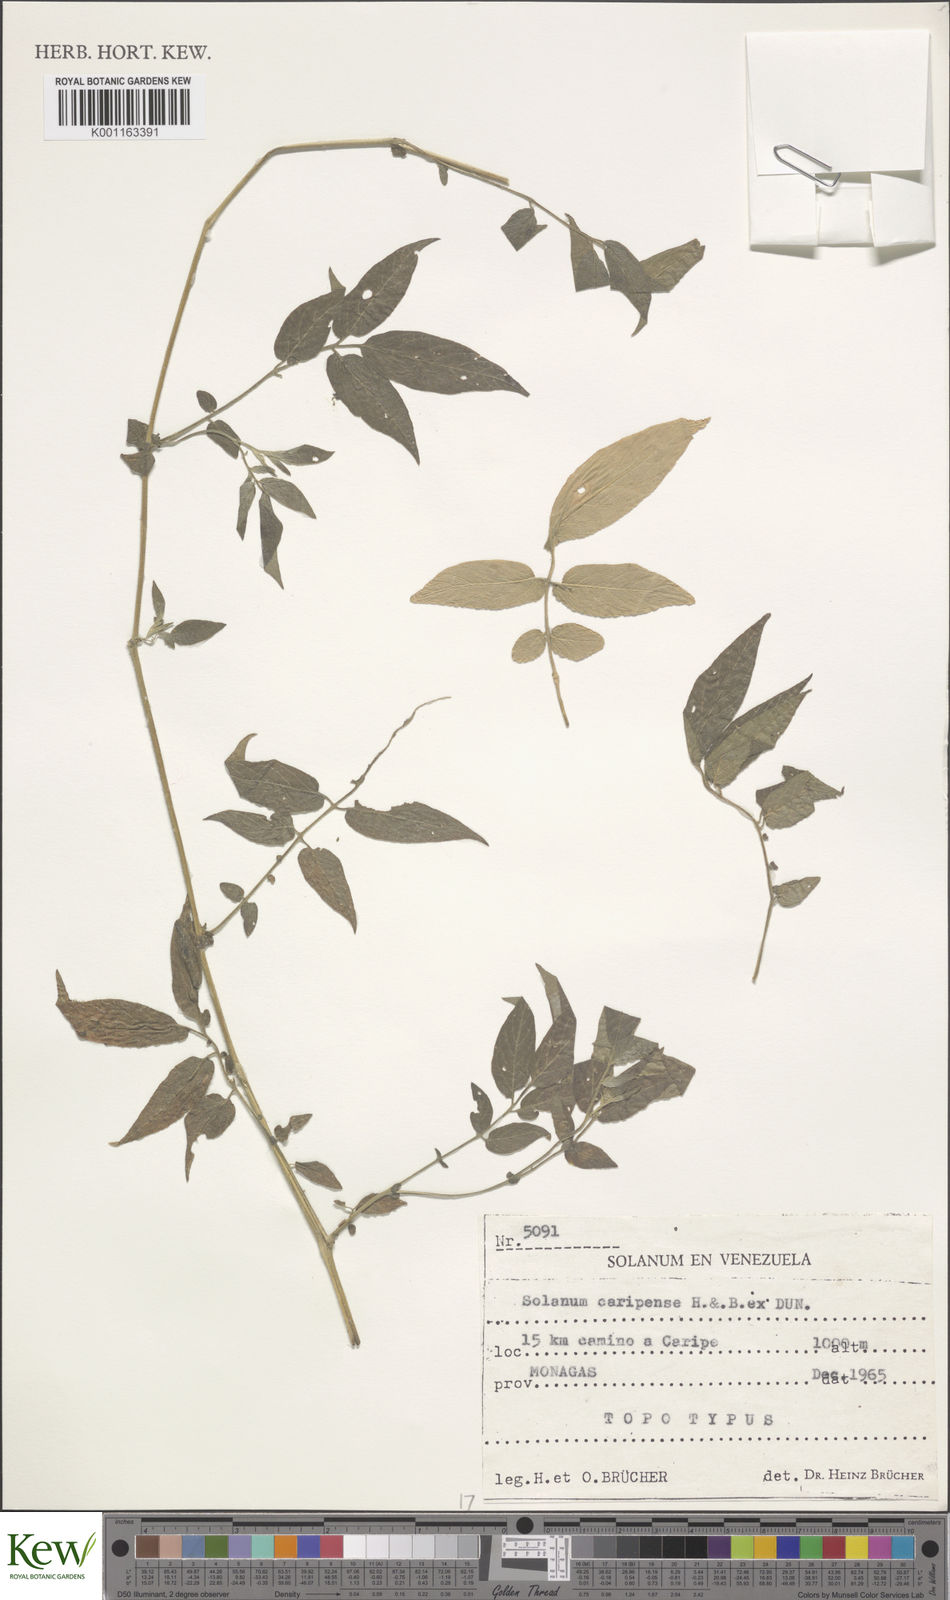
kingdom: Plantae
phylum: Tracheophyta
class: Magnoliopsida
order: Solanales
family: Solanaceae
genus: Solanum
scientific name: Solanum caripense
